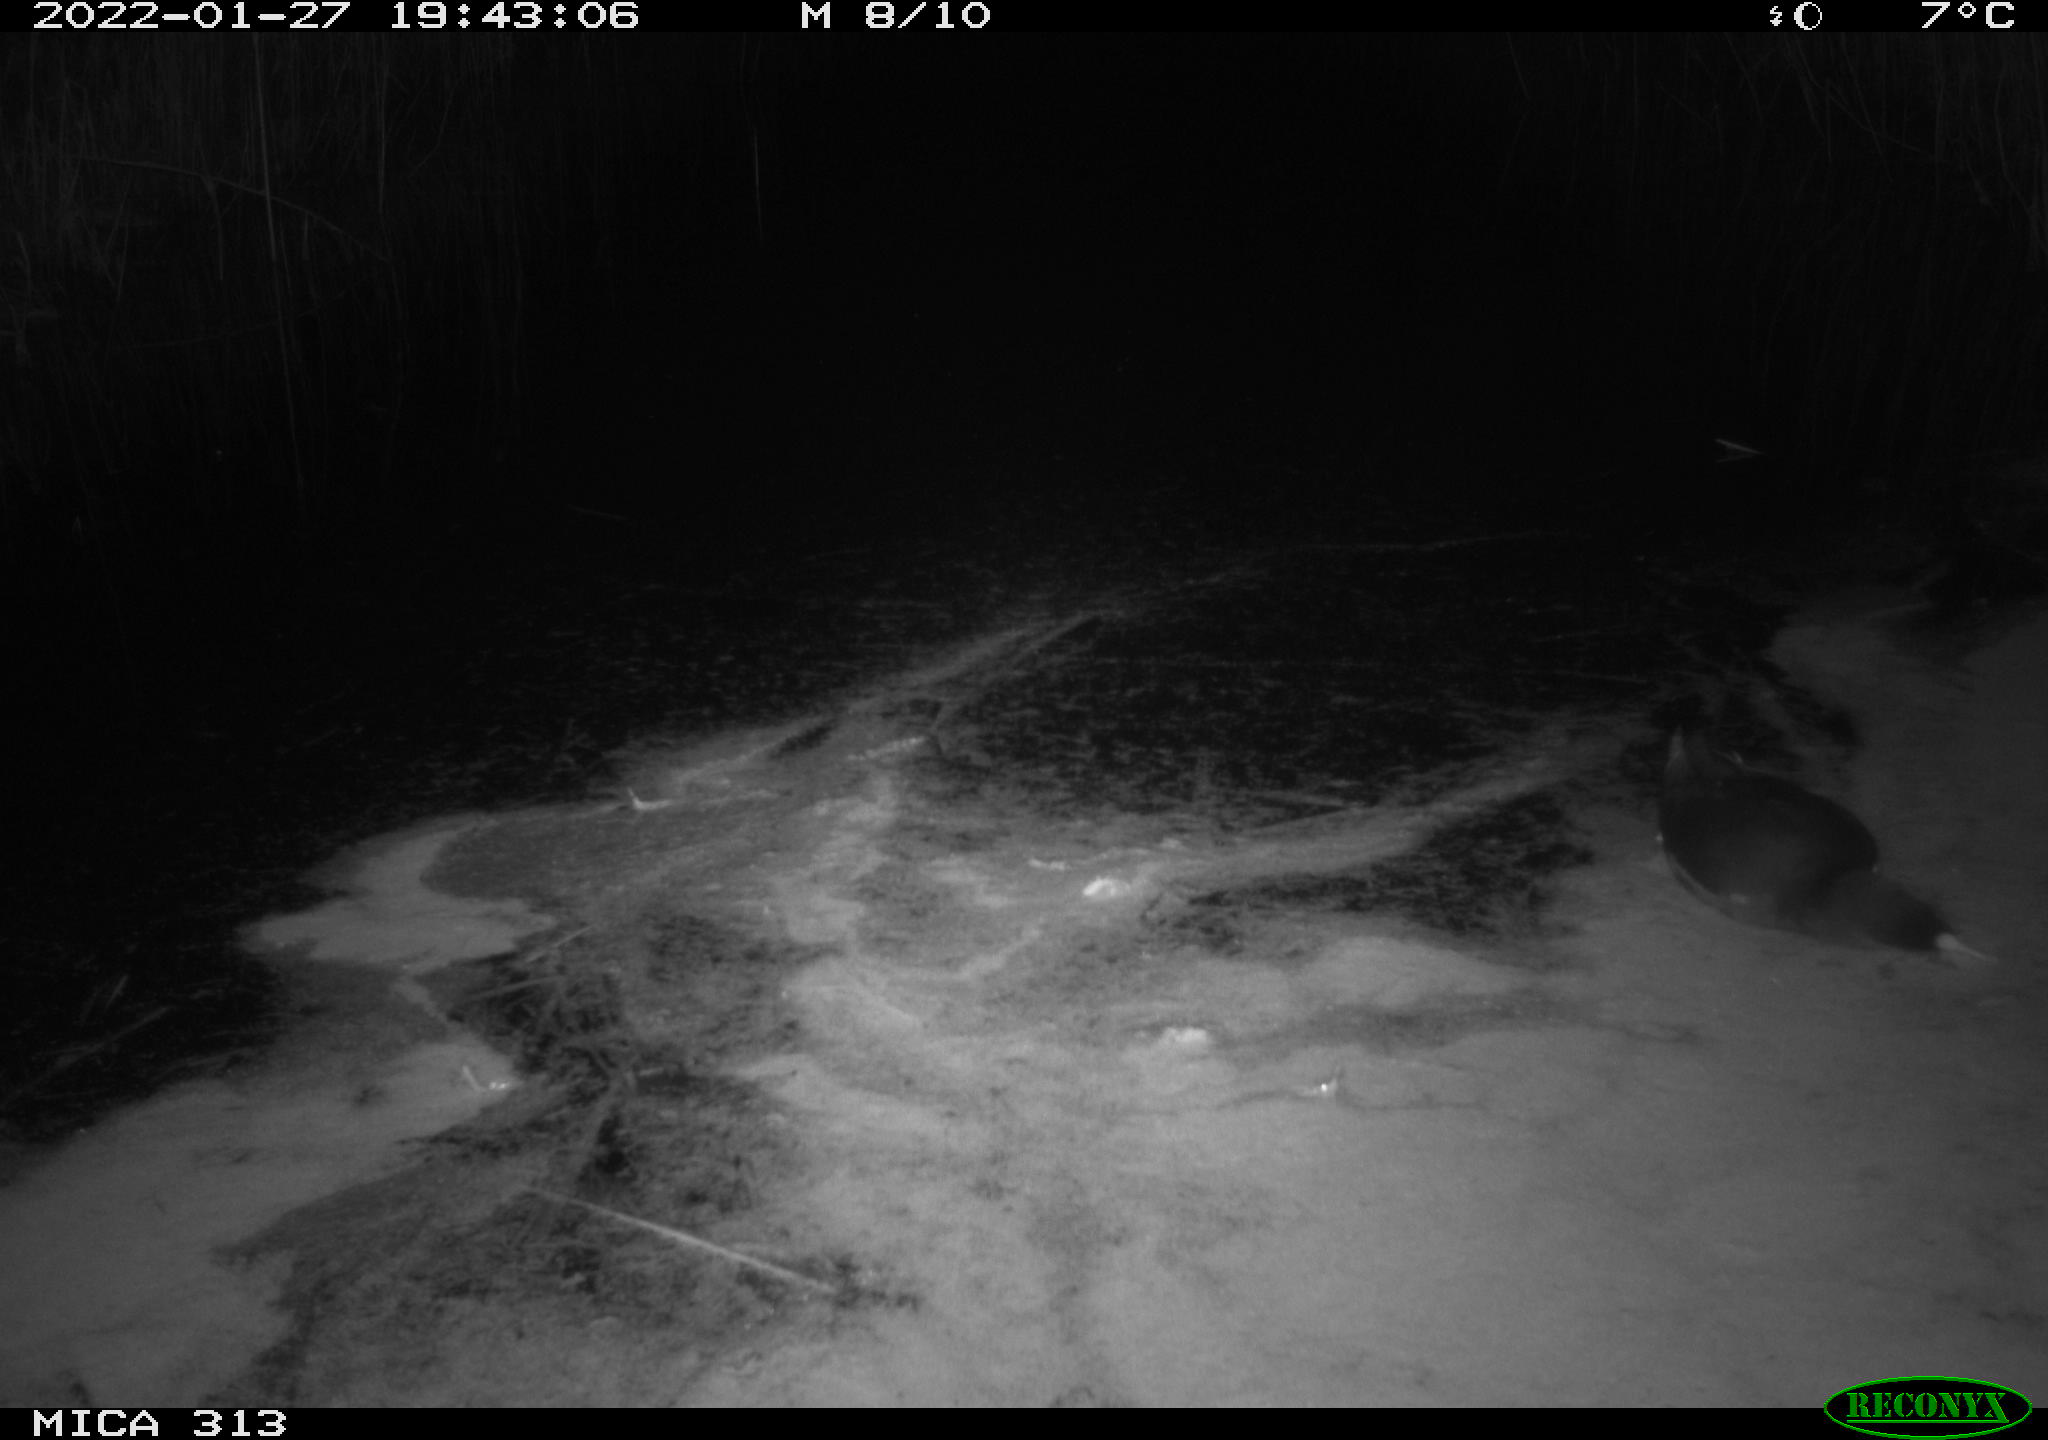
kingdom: Animalia
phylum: Chordata
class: Aves
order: Gruiformes
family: Rallidae
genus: Fulica
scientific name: Fulica atra
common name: Eurasian coot
